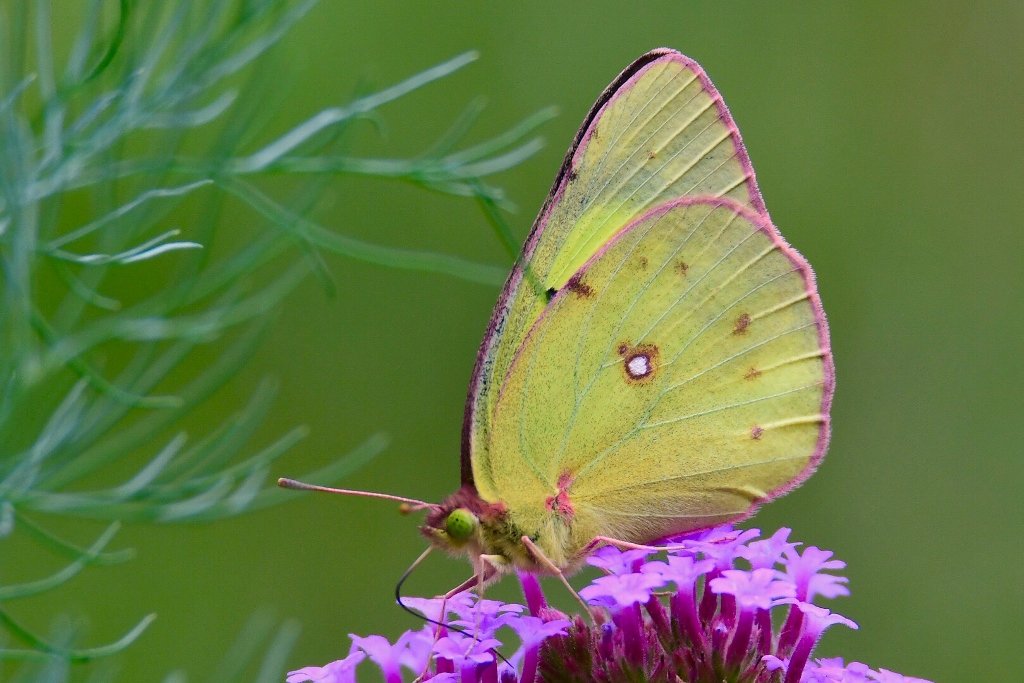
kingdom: Animalia
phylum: Arthropoda
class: Insecta
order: Lepidoptera
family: Pieridae
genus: Colias
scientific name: Colias philodice
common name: Clouded Sulphur
